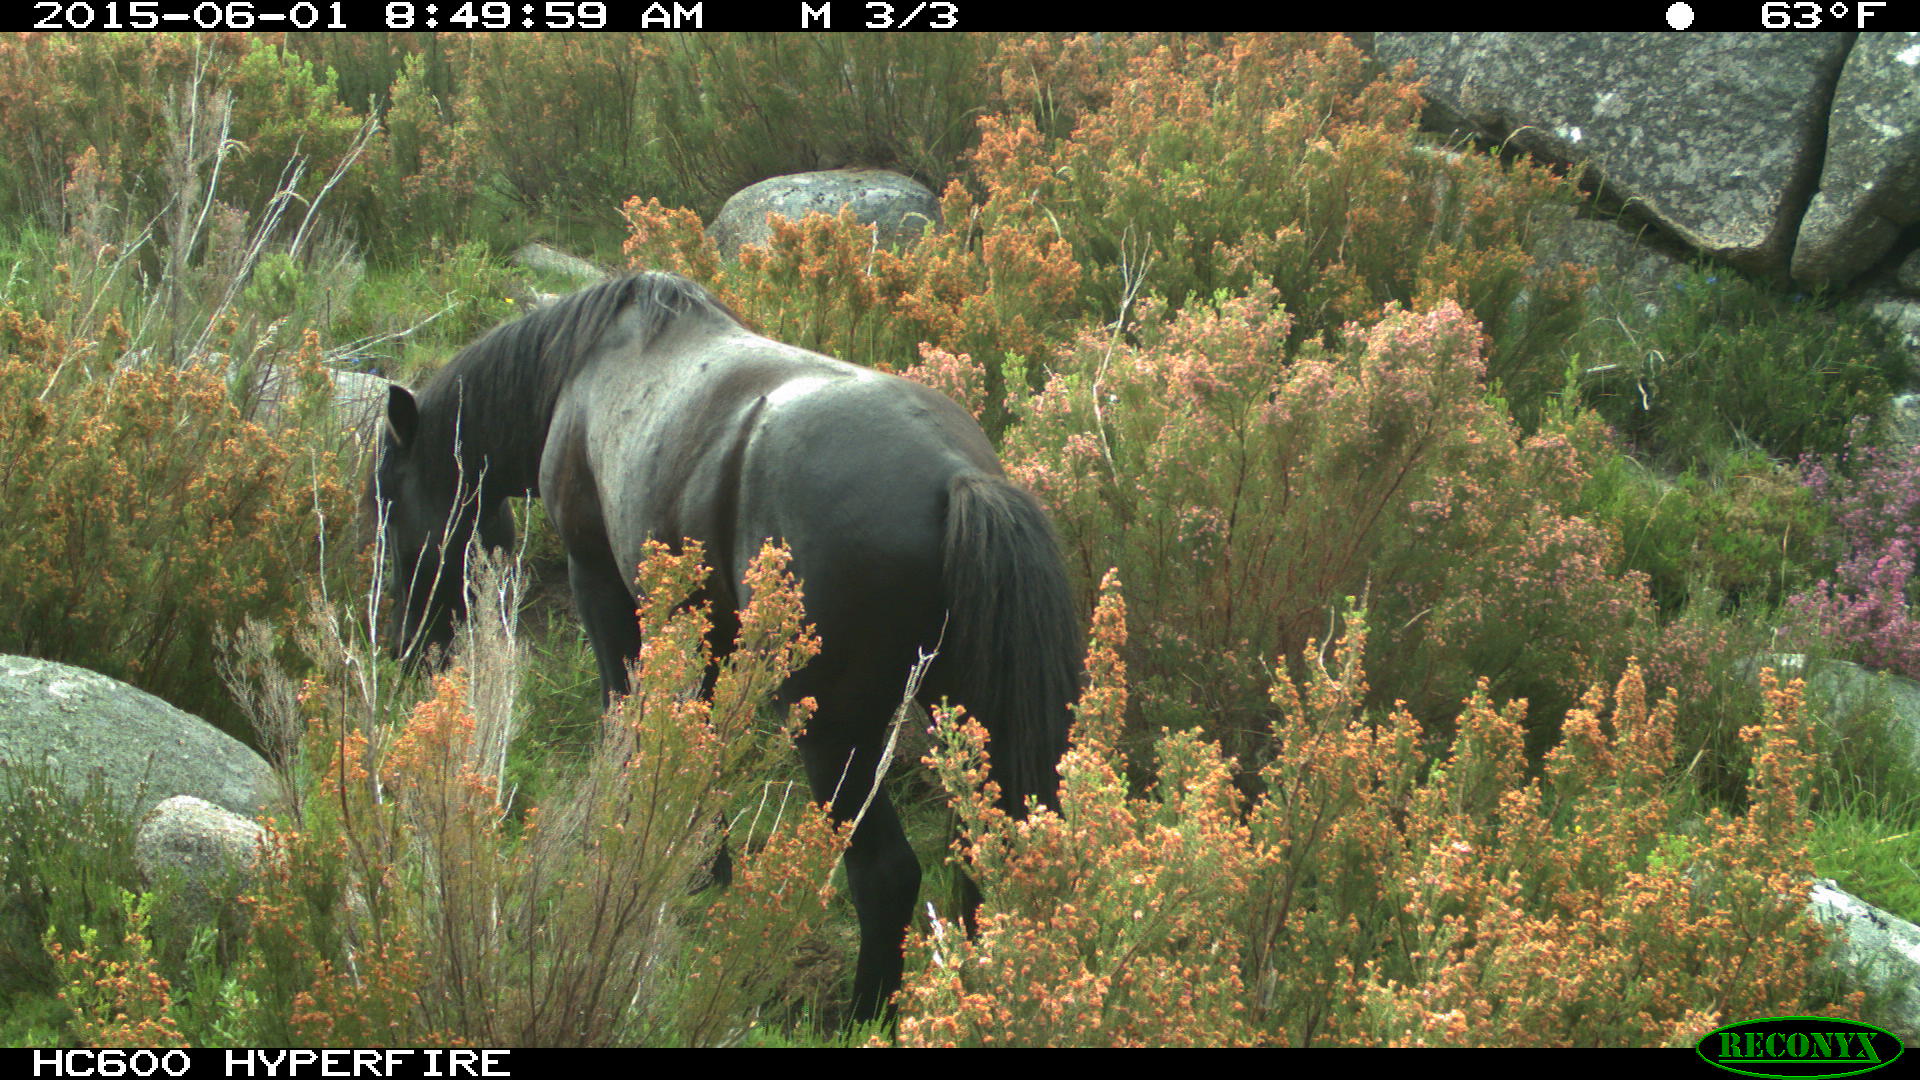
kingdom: Animalia
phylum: Chordata
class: Mammalia
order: Perissodactyla
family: Equidae
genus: Equus
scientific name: Equus caballus
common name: Horse
